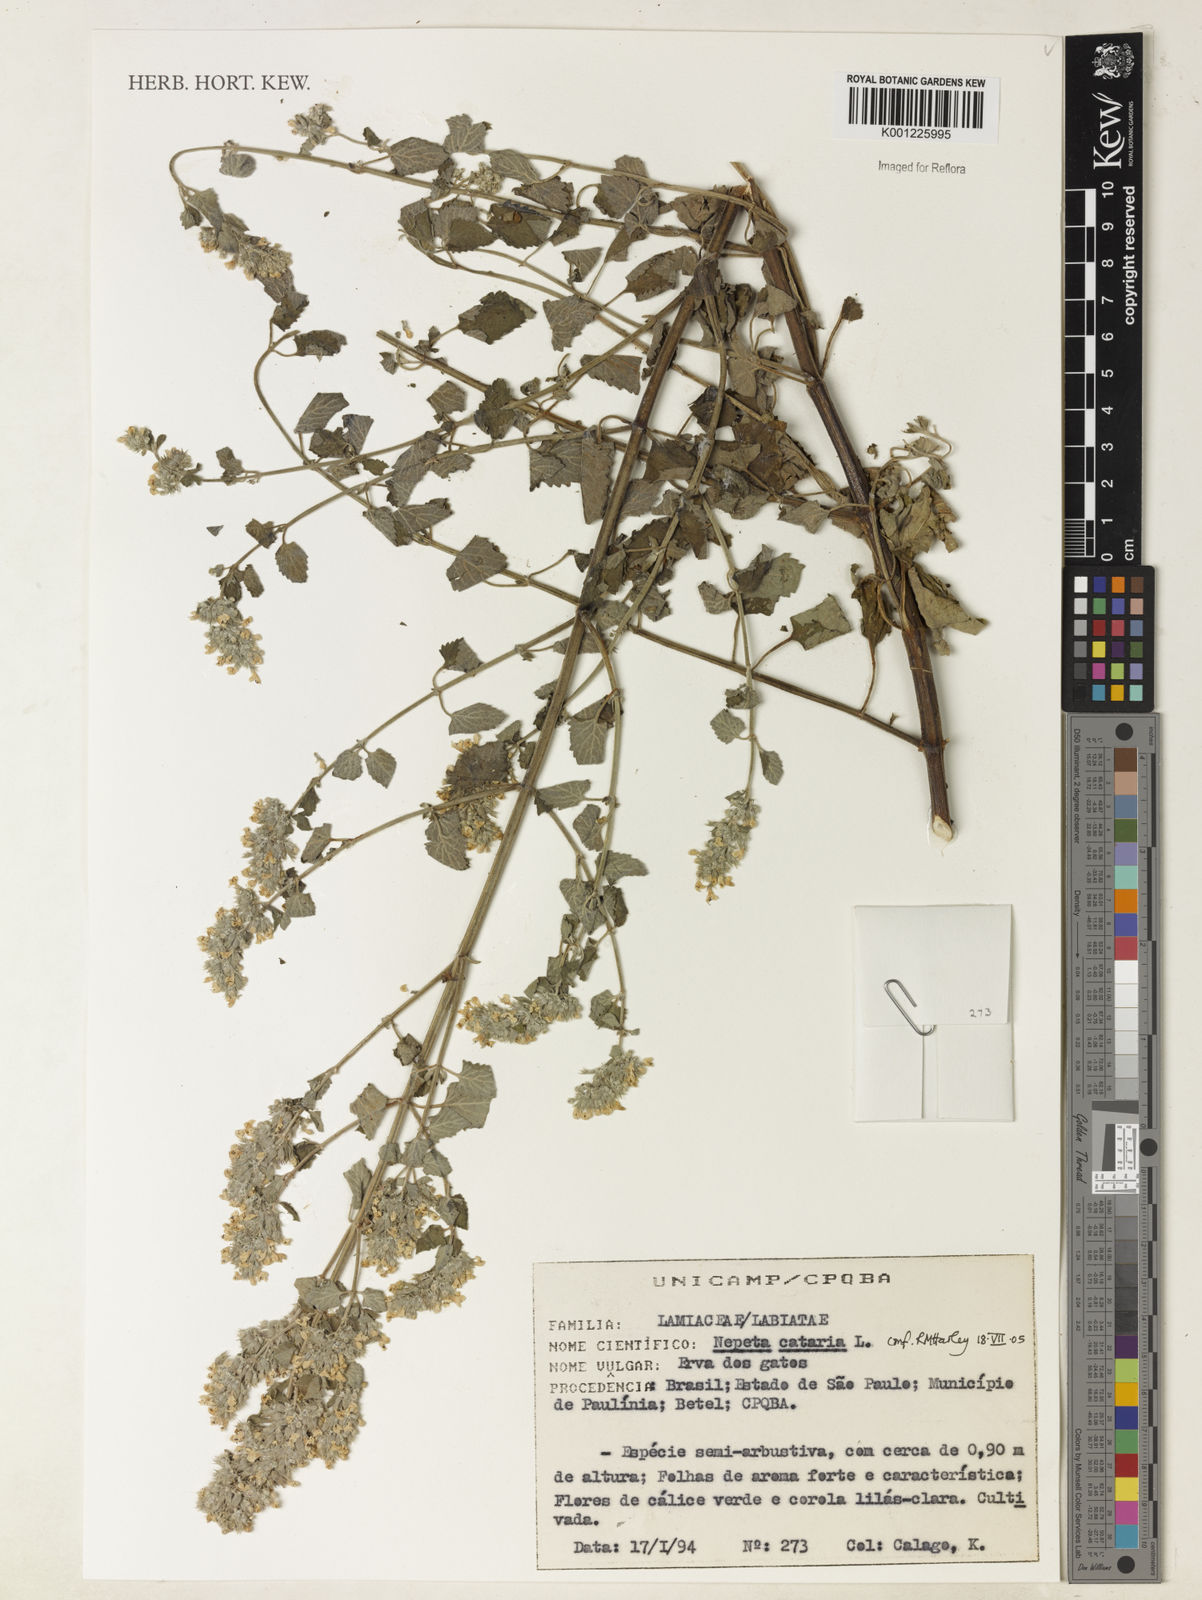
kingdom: Plantae
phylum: Tracheophyta
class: Magnoliopsida
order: Lamiales
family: Lamiaceae
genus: Nepeta
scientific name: Nepeta cataria
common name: Catnip
